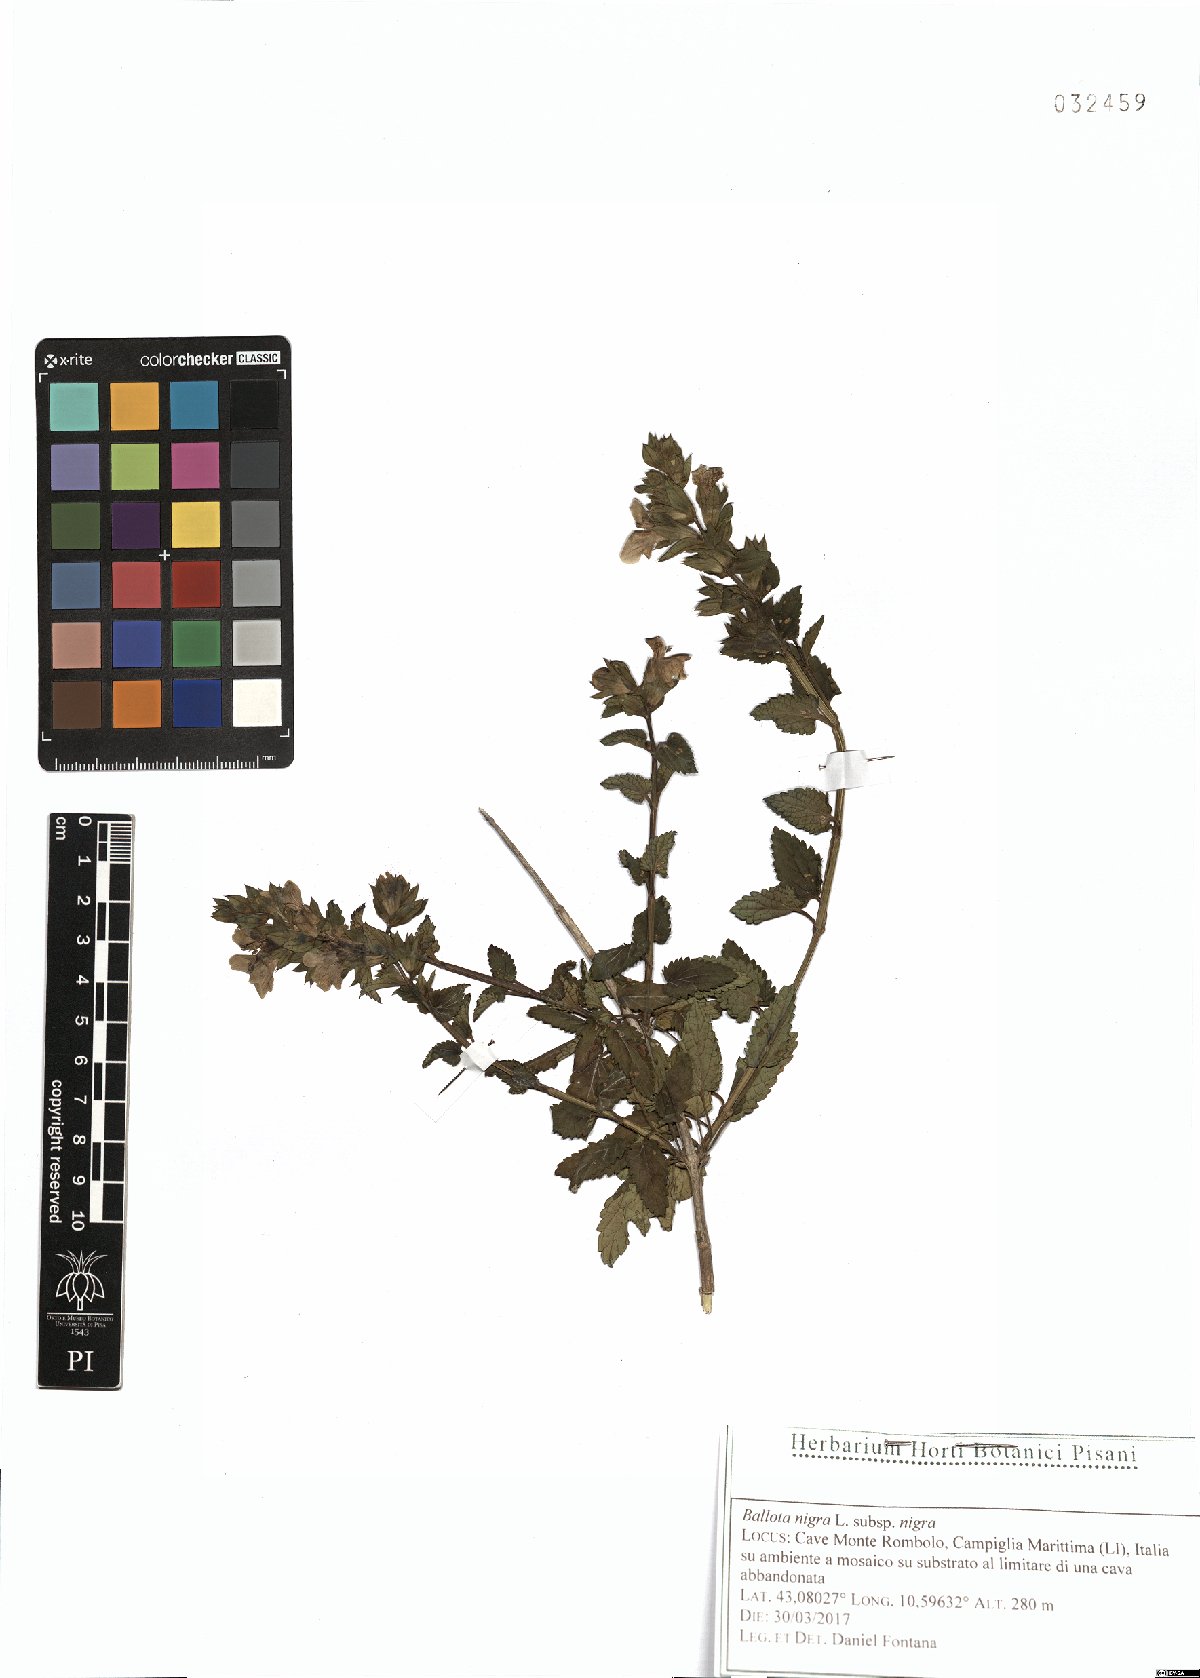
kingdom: Plantae
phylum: Tracheophyta
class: Magnoliopsida
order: Lamiales
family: Lamiaceae
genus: Ballota
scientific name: Ballota nigra
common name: Black horehound
